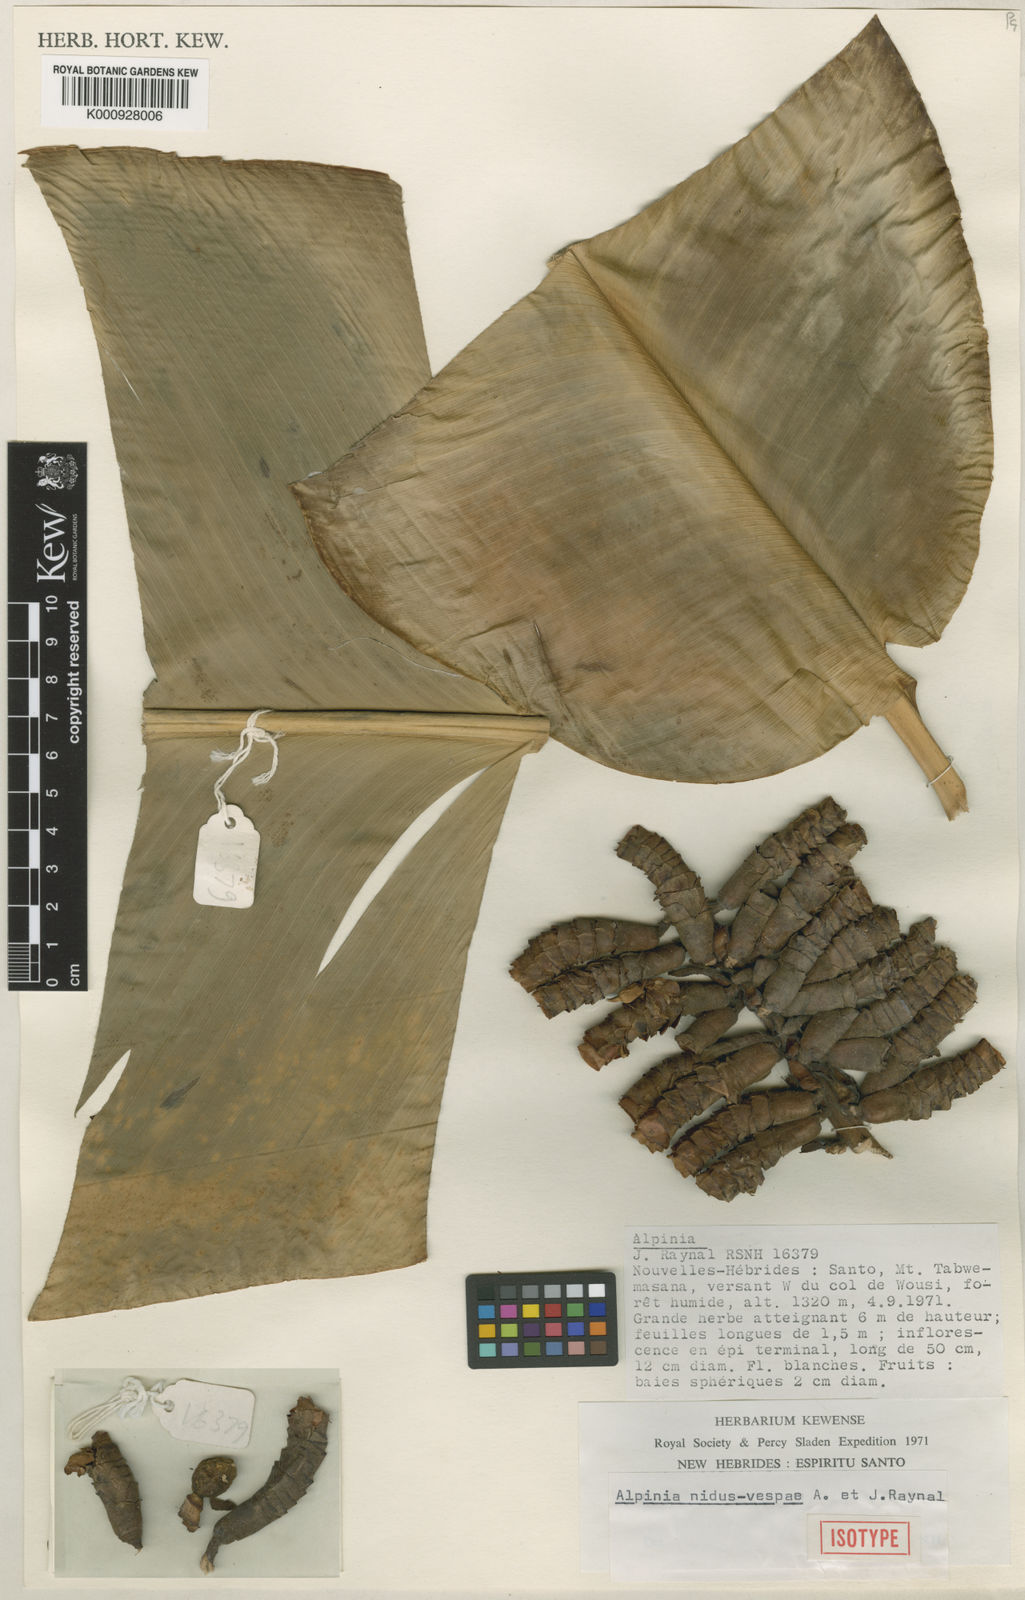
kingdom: Plantae
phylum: Tracheophyta
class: Liliopsida
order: Zingiberales
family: Zingiberaceae
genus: Alpinia
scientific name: Alpinia nidus-vespae
